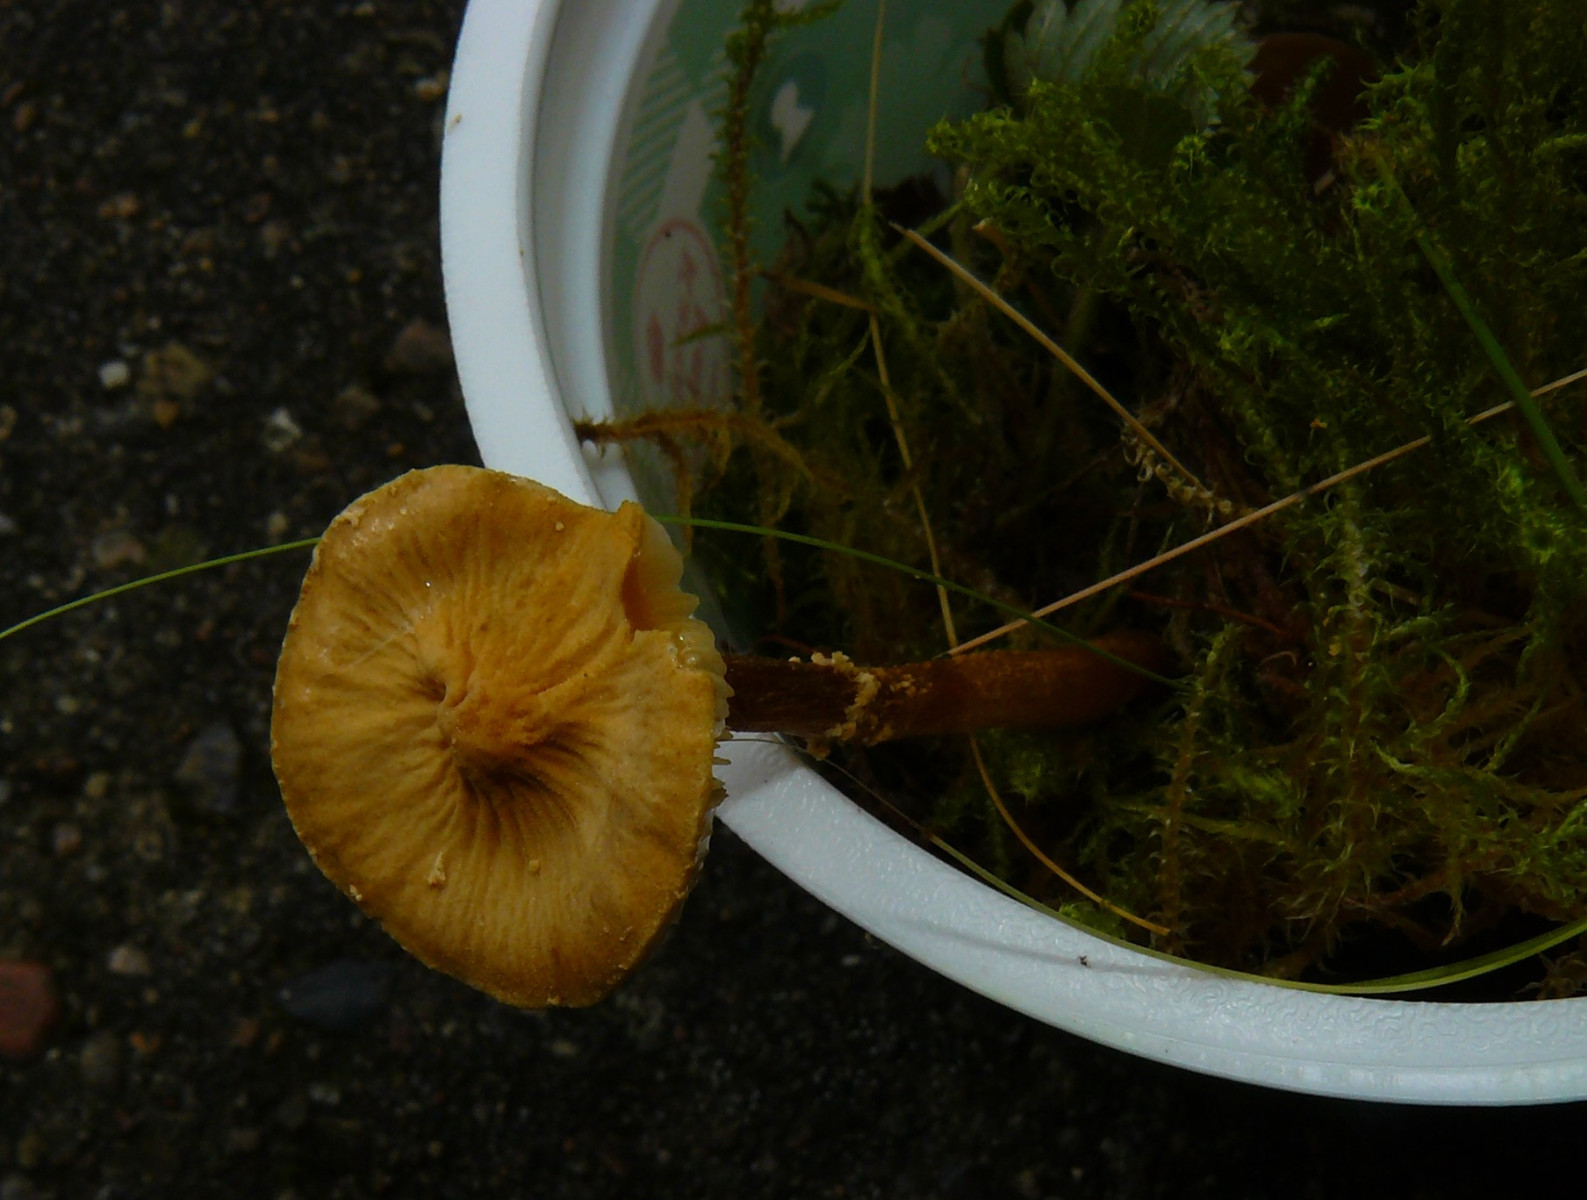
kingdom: Fungi
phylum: Basidiomycota
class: Agaricomycetes
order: Agaricales
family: Tricholomataceae
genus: Cystoderma
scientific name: Cystoderma amianthinum
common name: okkergul grynhat
